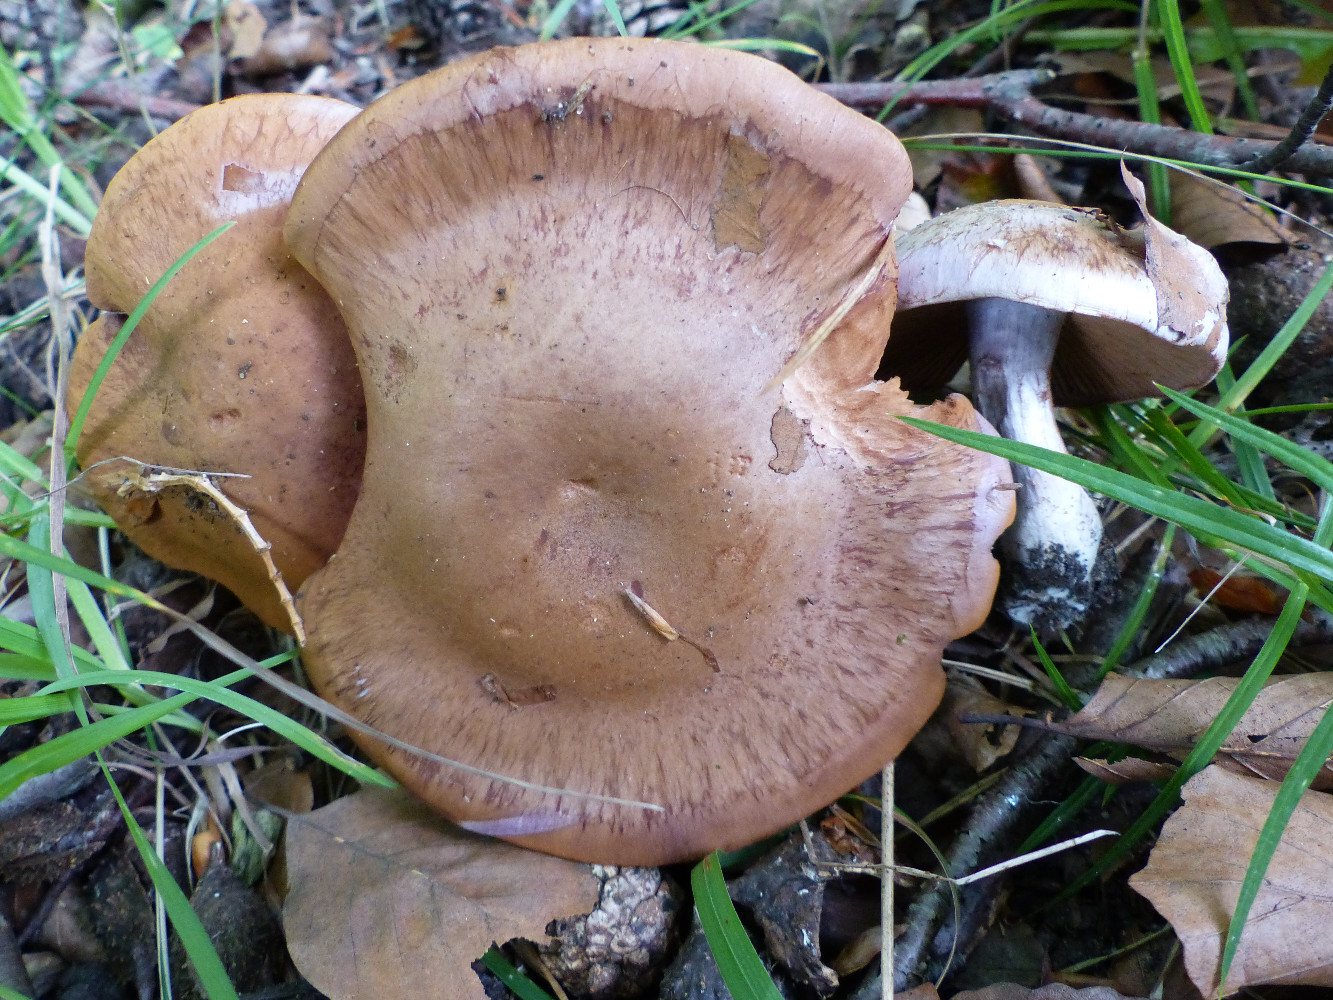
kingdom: Fungi
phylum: Basidiomycota
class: Agaricomycetes
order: Agaricales
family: Cortinariaceae
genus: Cortinarius
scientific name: Cortinarius variecolor
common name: violetagtig slørhat
